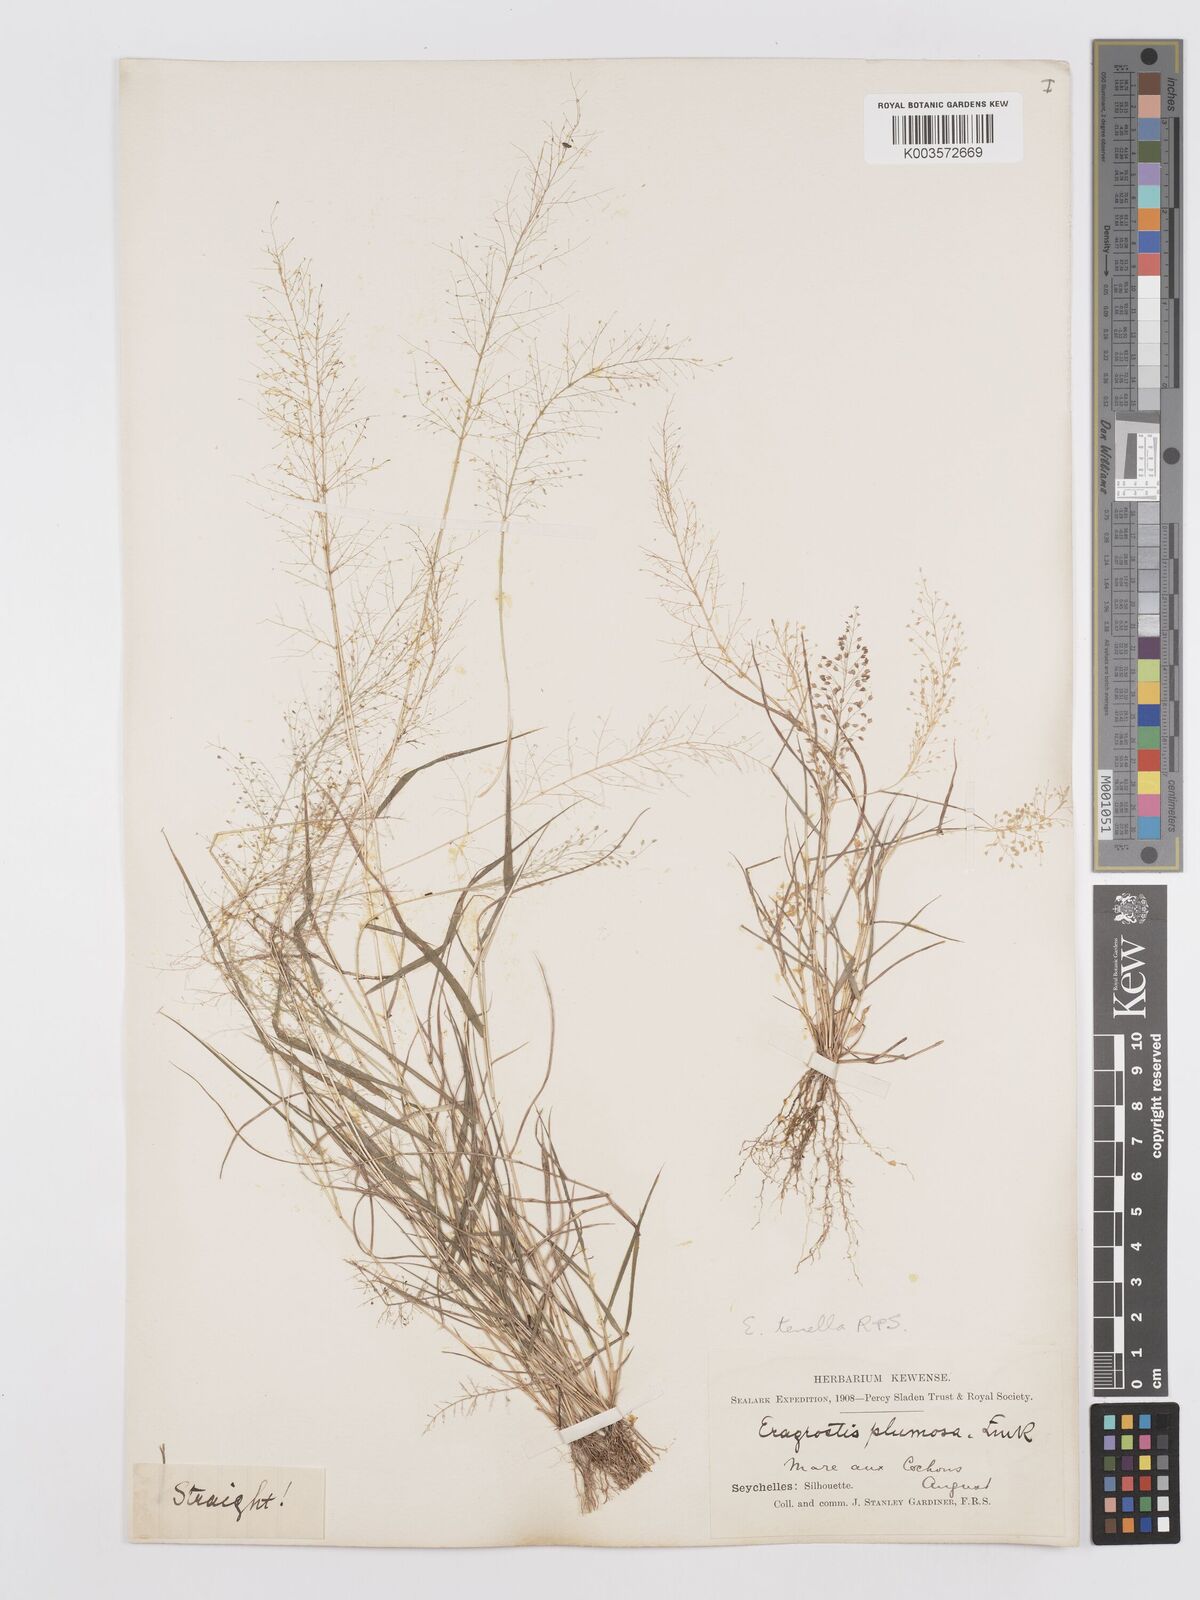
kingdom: Plantae
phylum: Tracheophyta
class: Liliopsida
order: Poales
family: Poaceae
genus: Eragrostis
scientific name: Eragrostis tenella
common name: Japanese lovegrass
